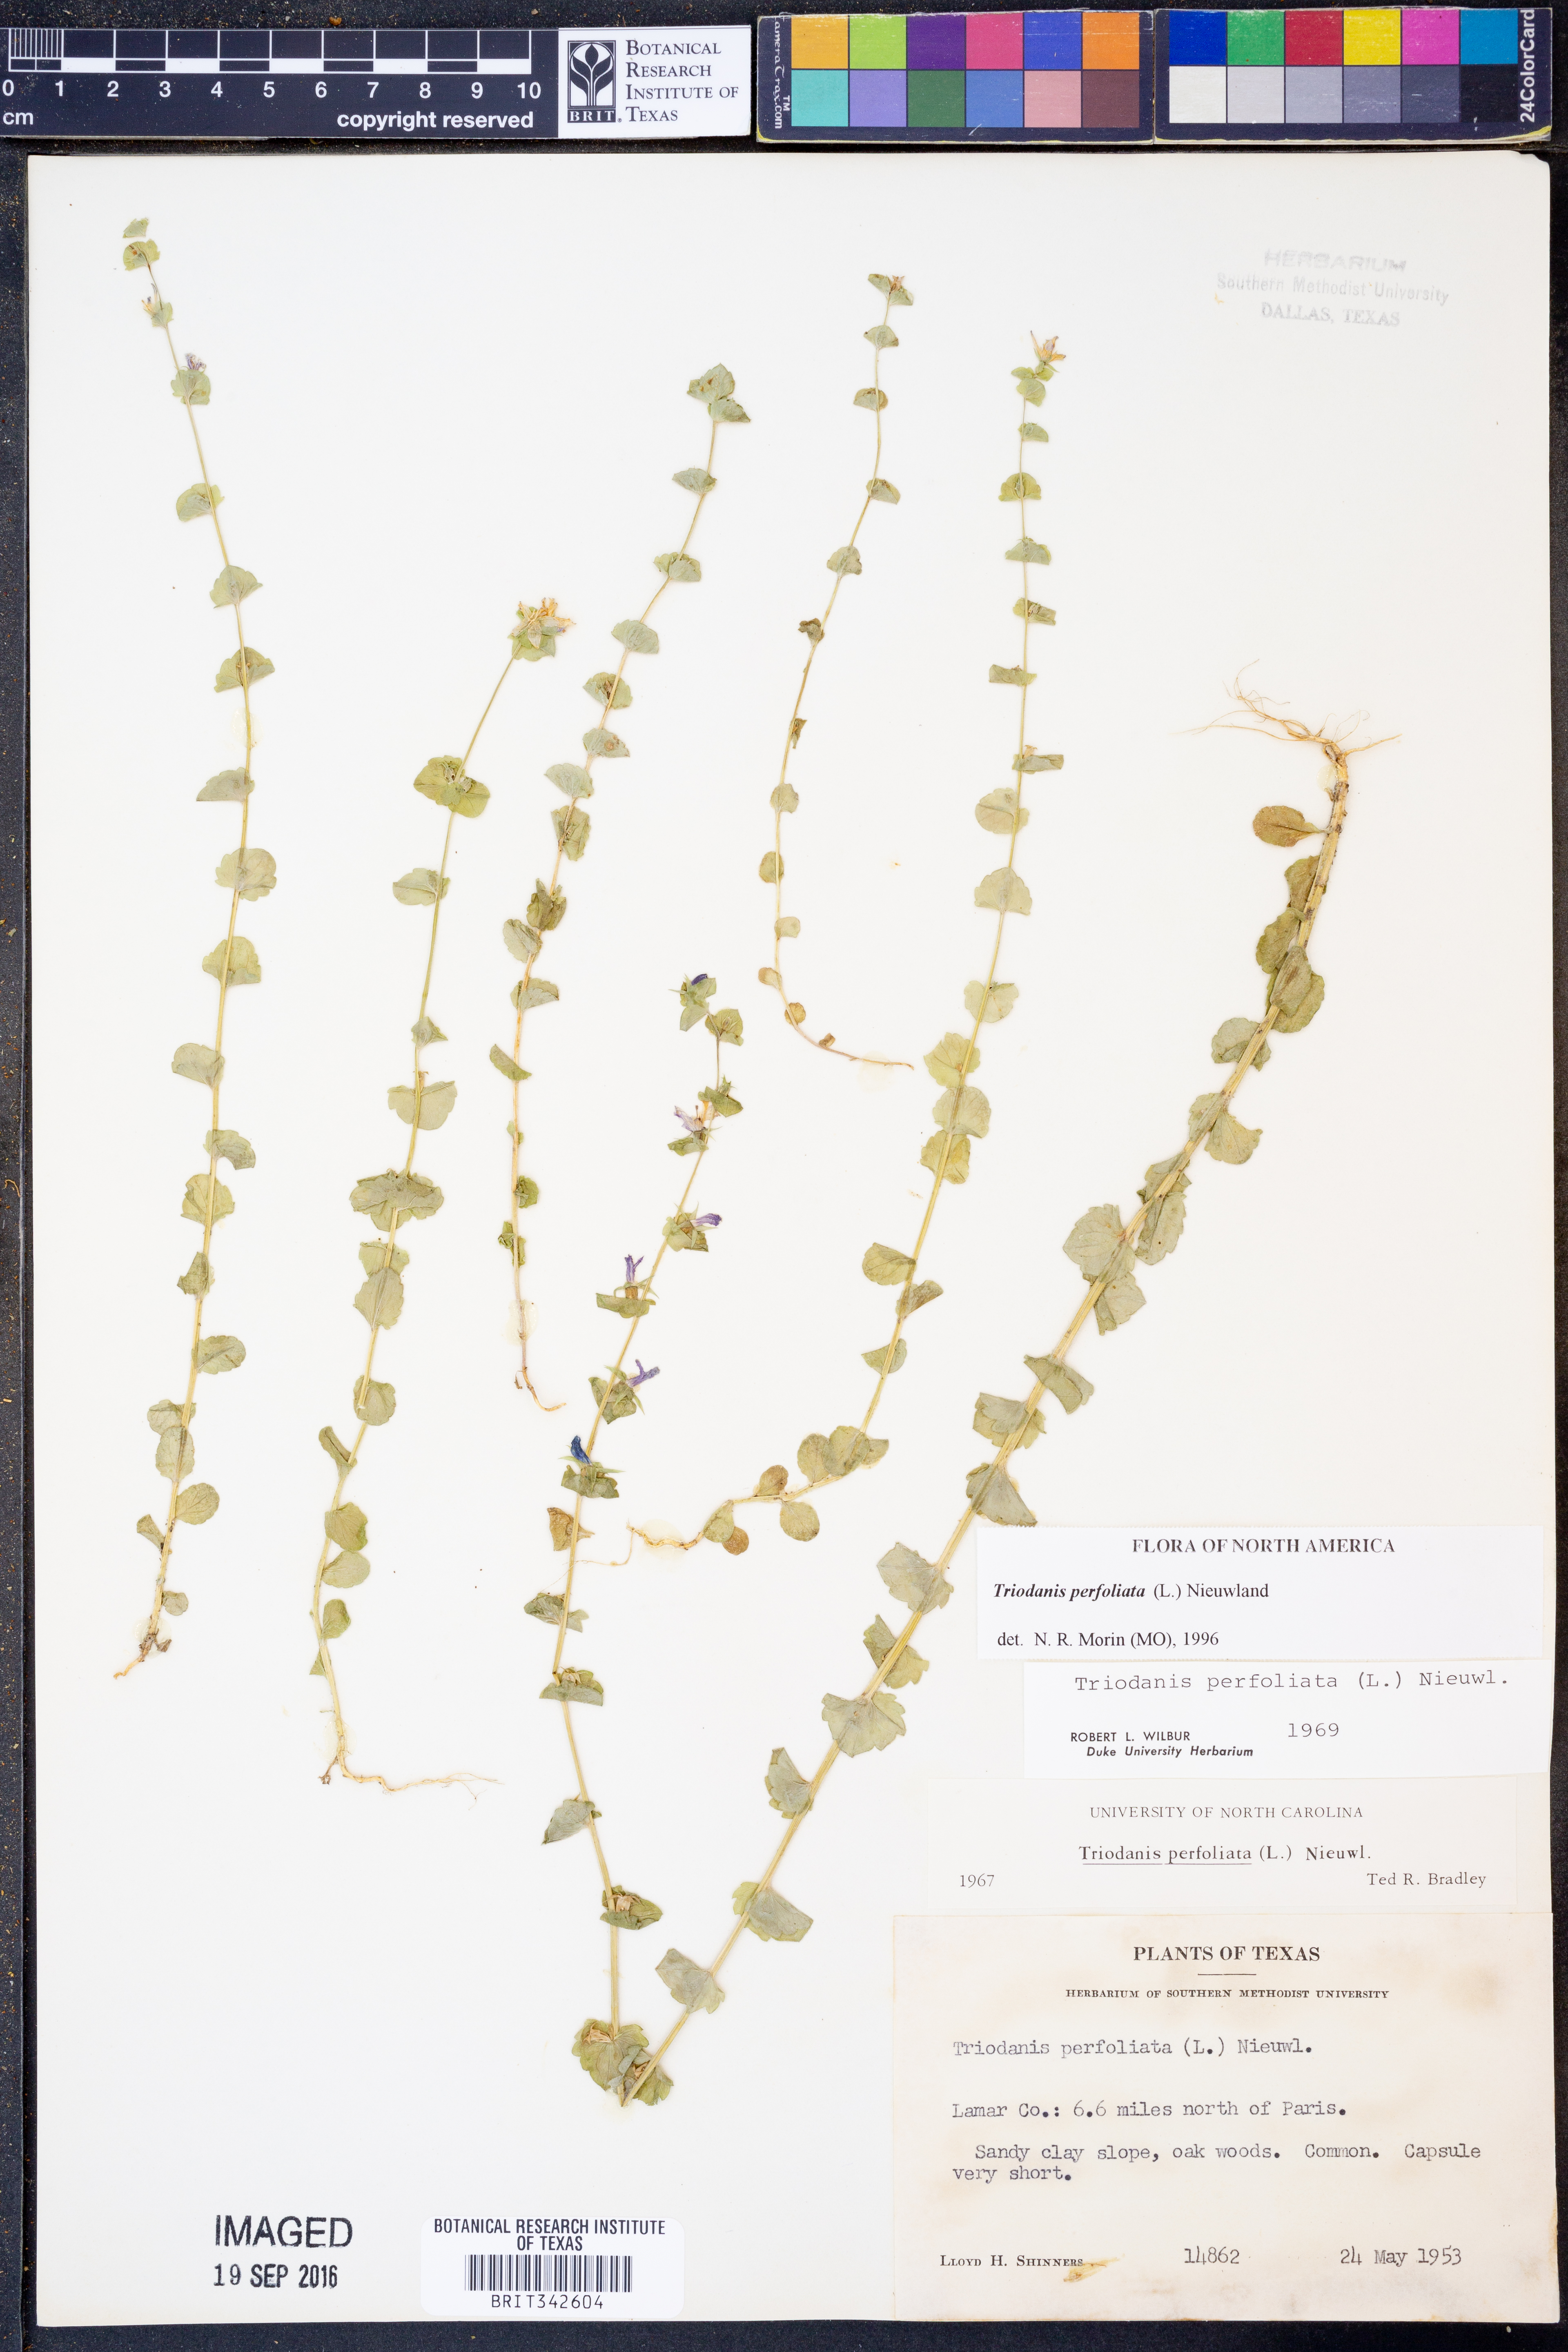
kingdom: Plantae
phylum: Tracheophyta
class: Magnoliopsida
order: Asterales
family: Campanulaceae
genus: Triodanis
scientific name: Triodanis perfoliata
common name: Clasping venus' looking-glass
